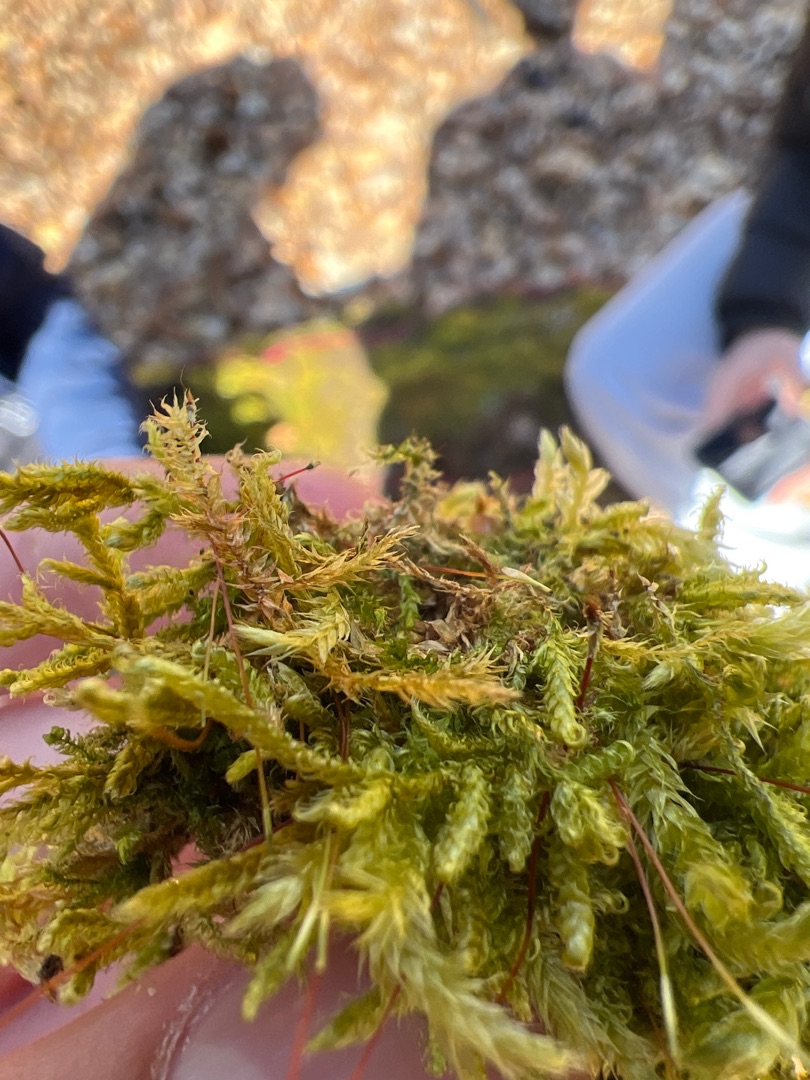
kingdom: Plantae
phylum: Bryophyta
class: Bryopsida
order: Hypnales
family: Hypnaceae
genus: Hypnum
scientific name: Hypnum cupressiforme
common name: Almindelig cypresmos
